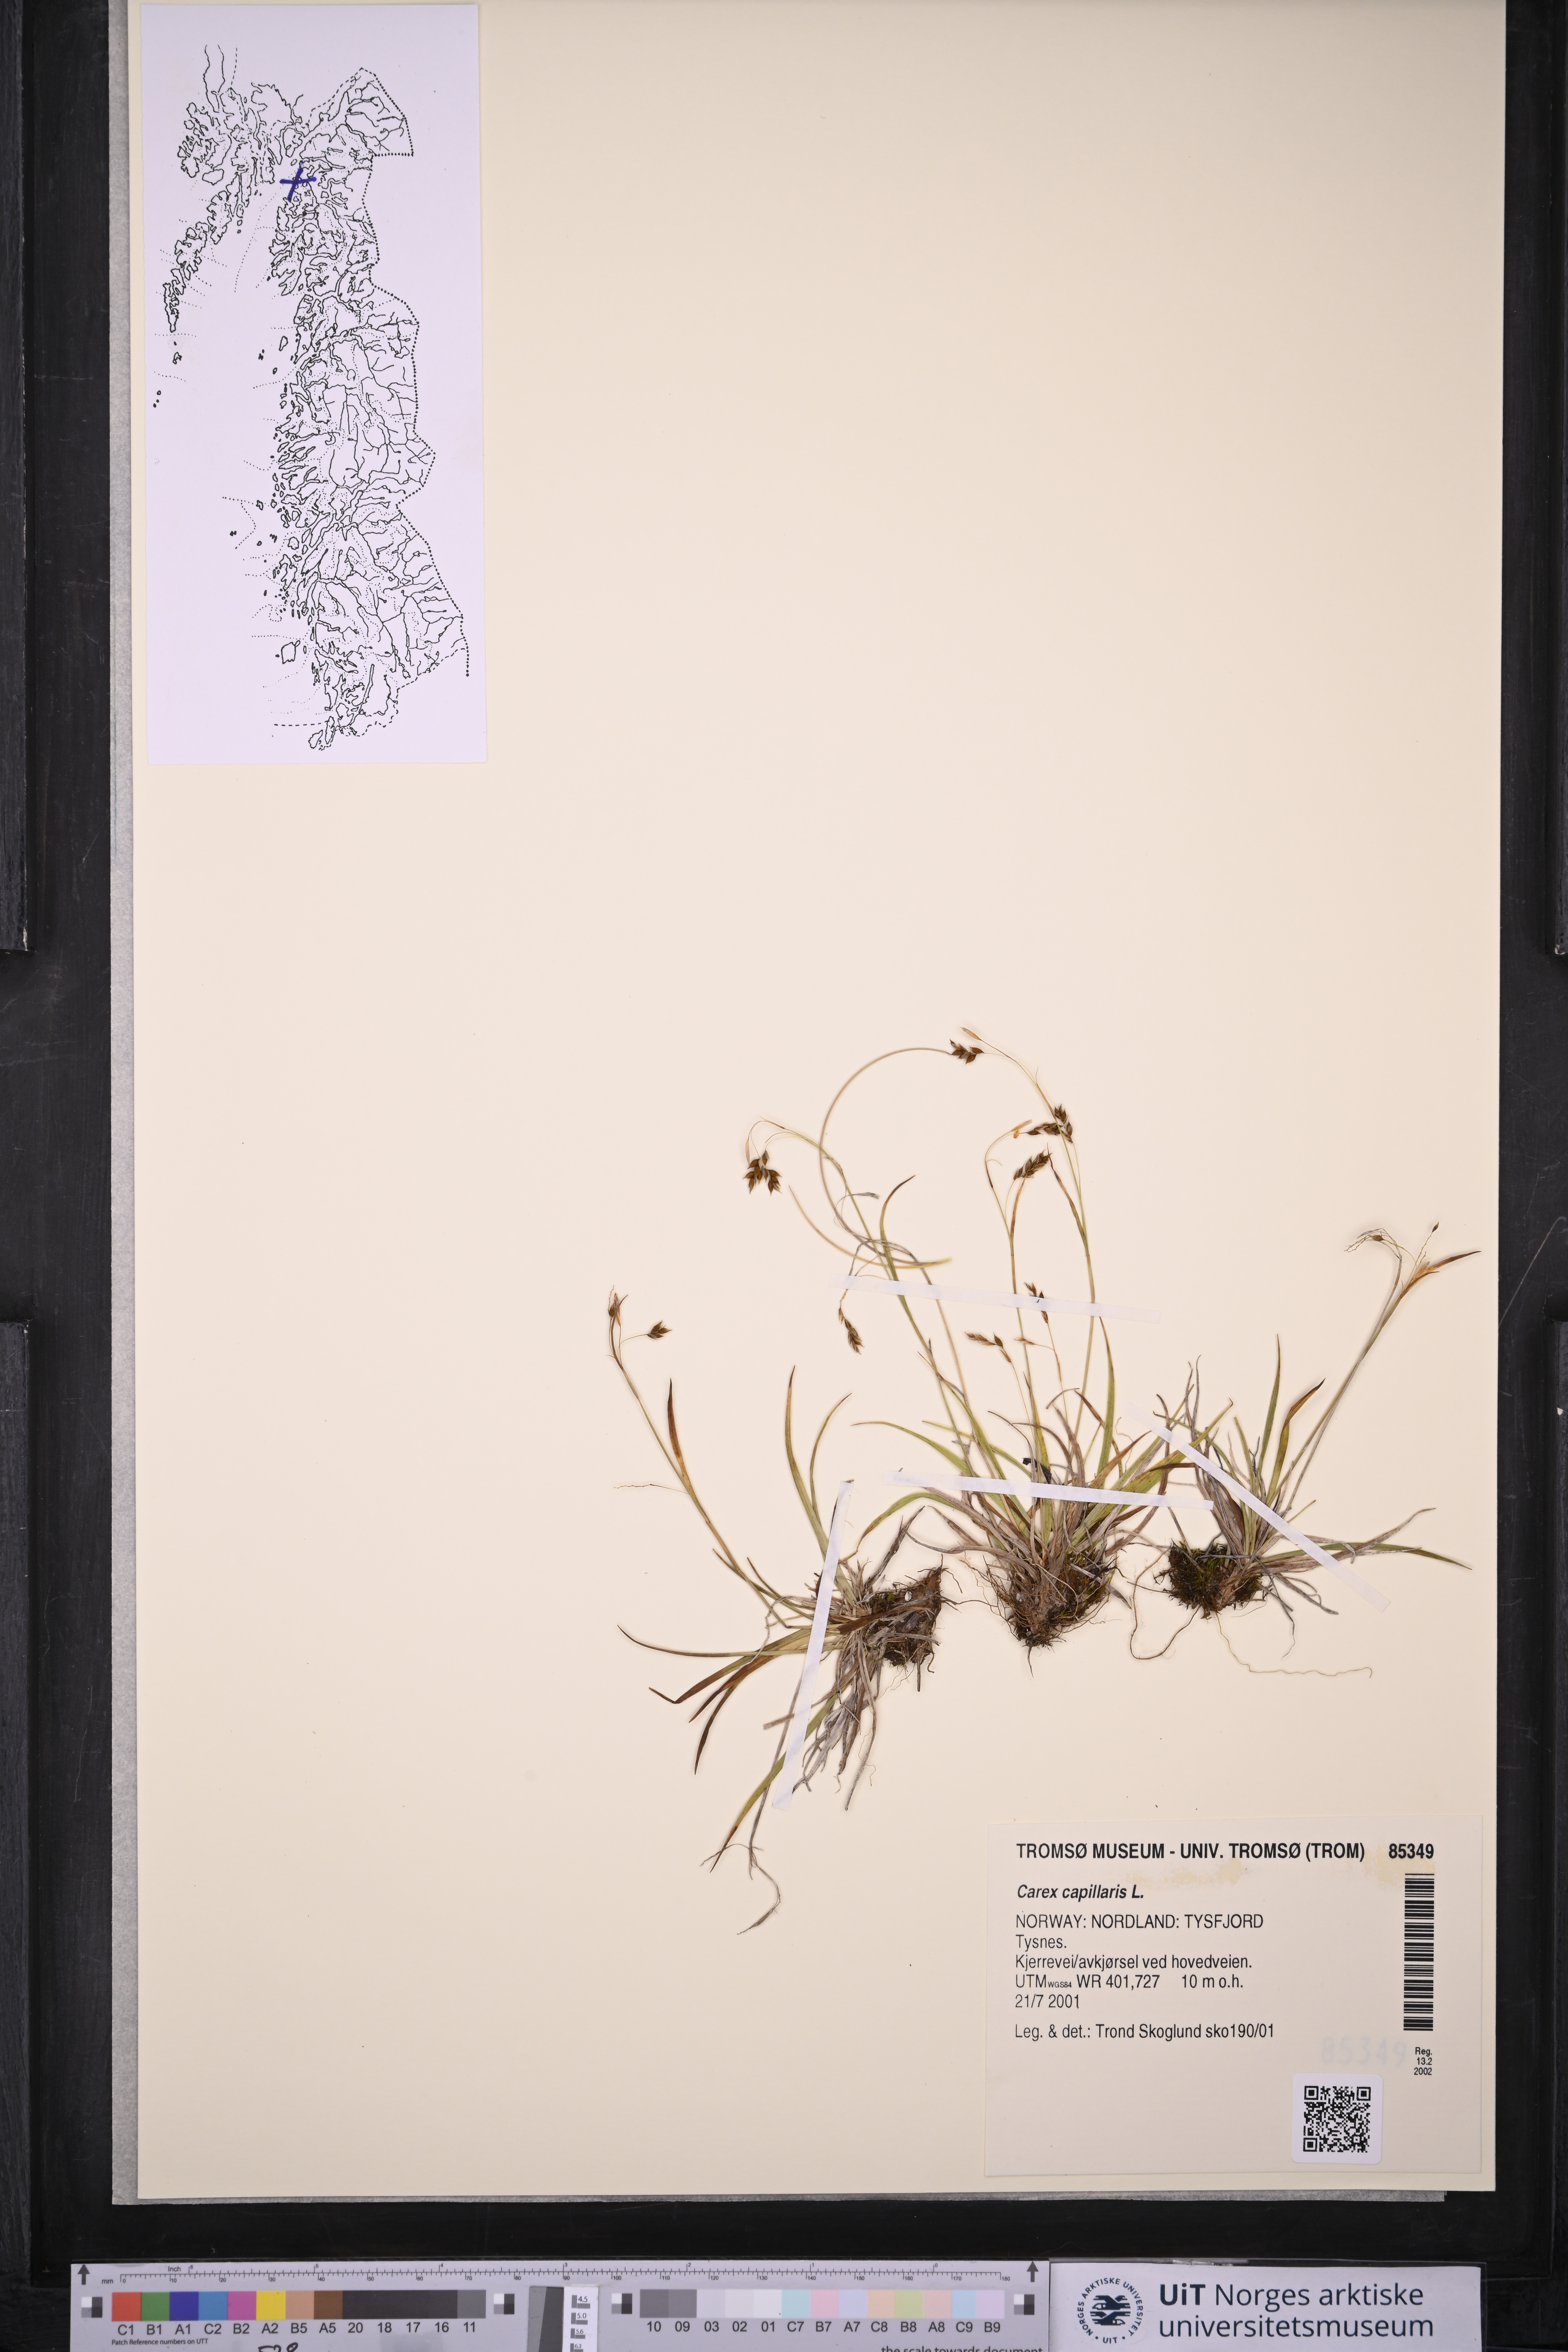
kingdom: Plantae
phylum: Tracheophyta
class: Liliopsida
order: Poales
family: Cyperaceae
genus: Carex
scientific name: Carex capillaris
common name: Hair sedge
